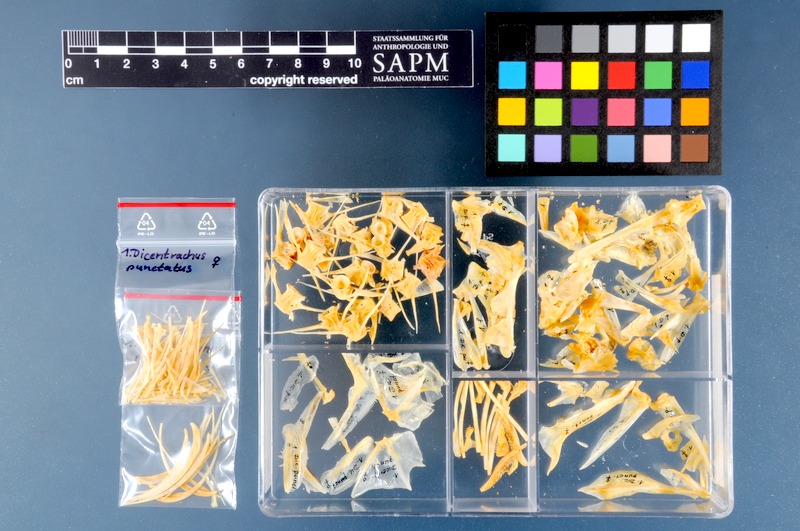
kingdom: Animalia
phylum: Chordata
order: Perciformes
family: Moronidae
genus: Dicentrarchus
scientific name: Dicentrarchus punctatus
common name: Black-spotted bass
